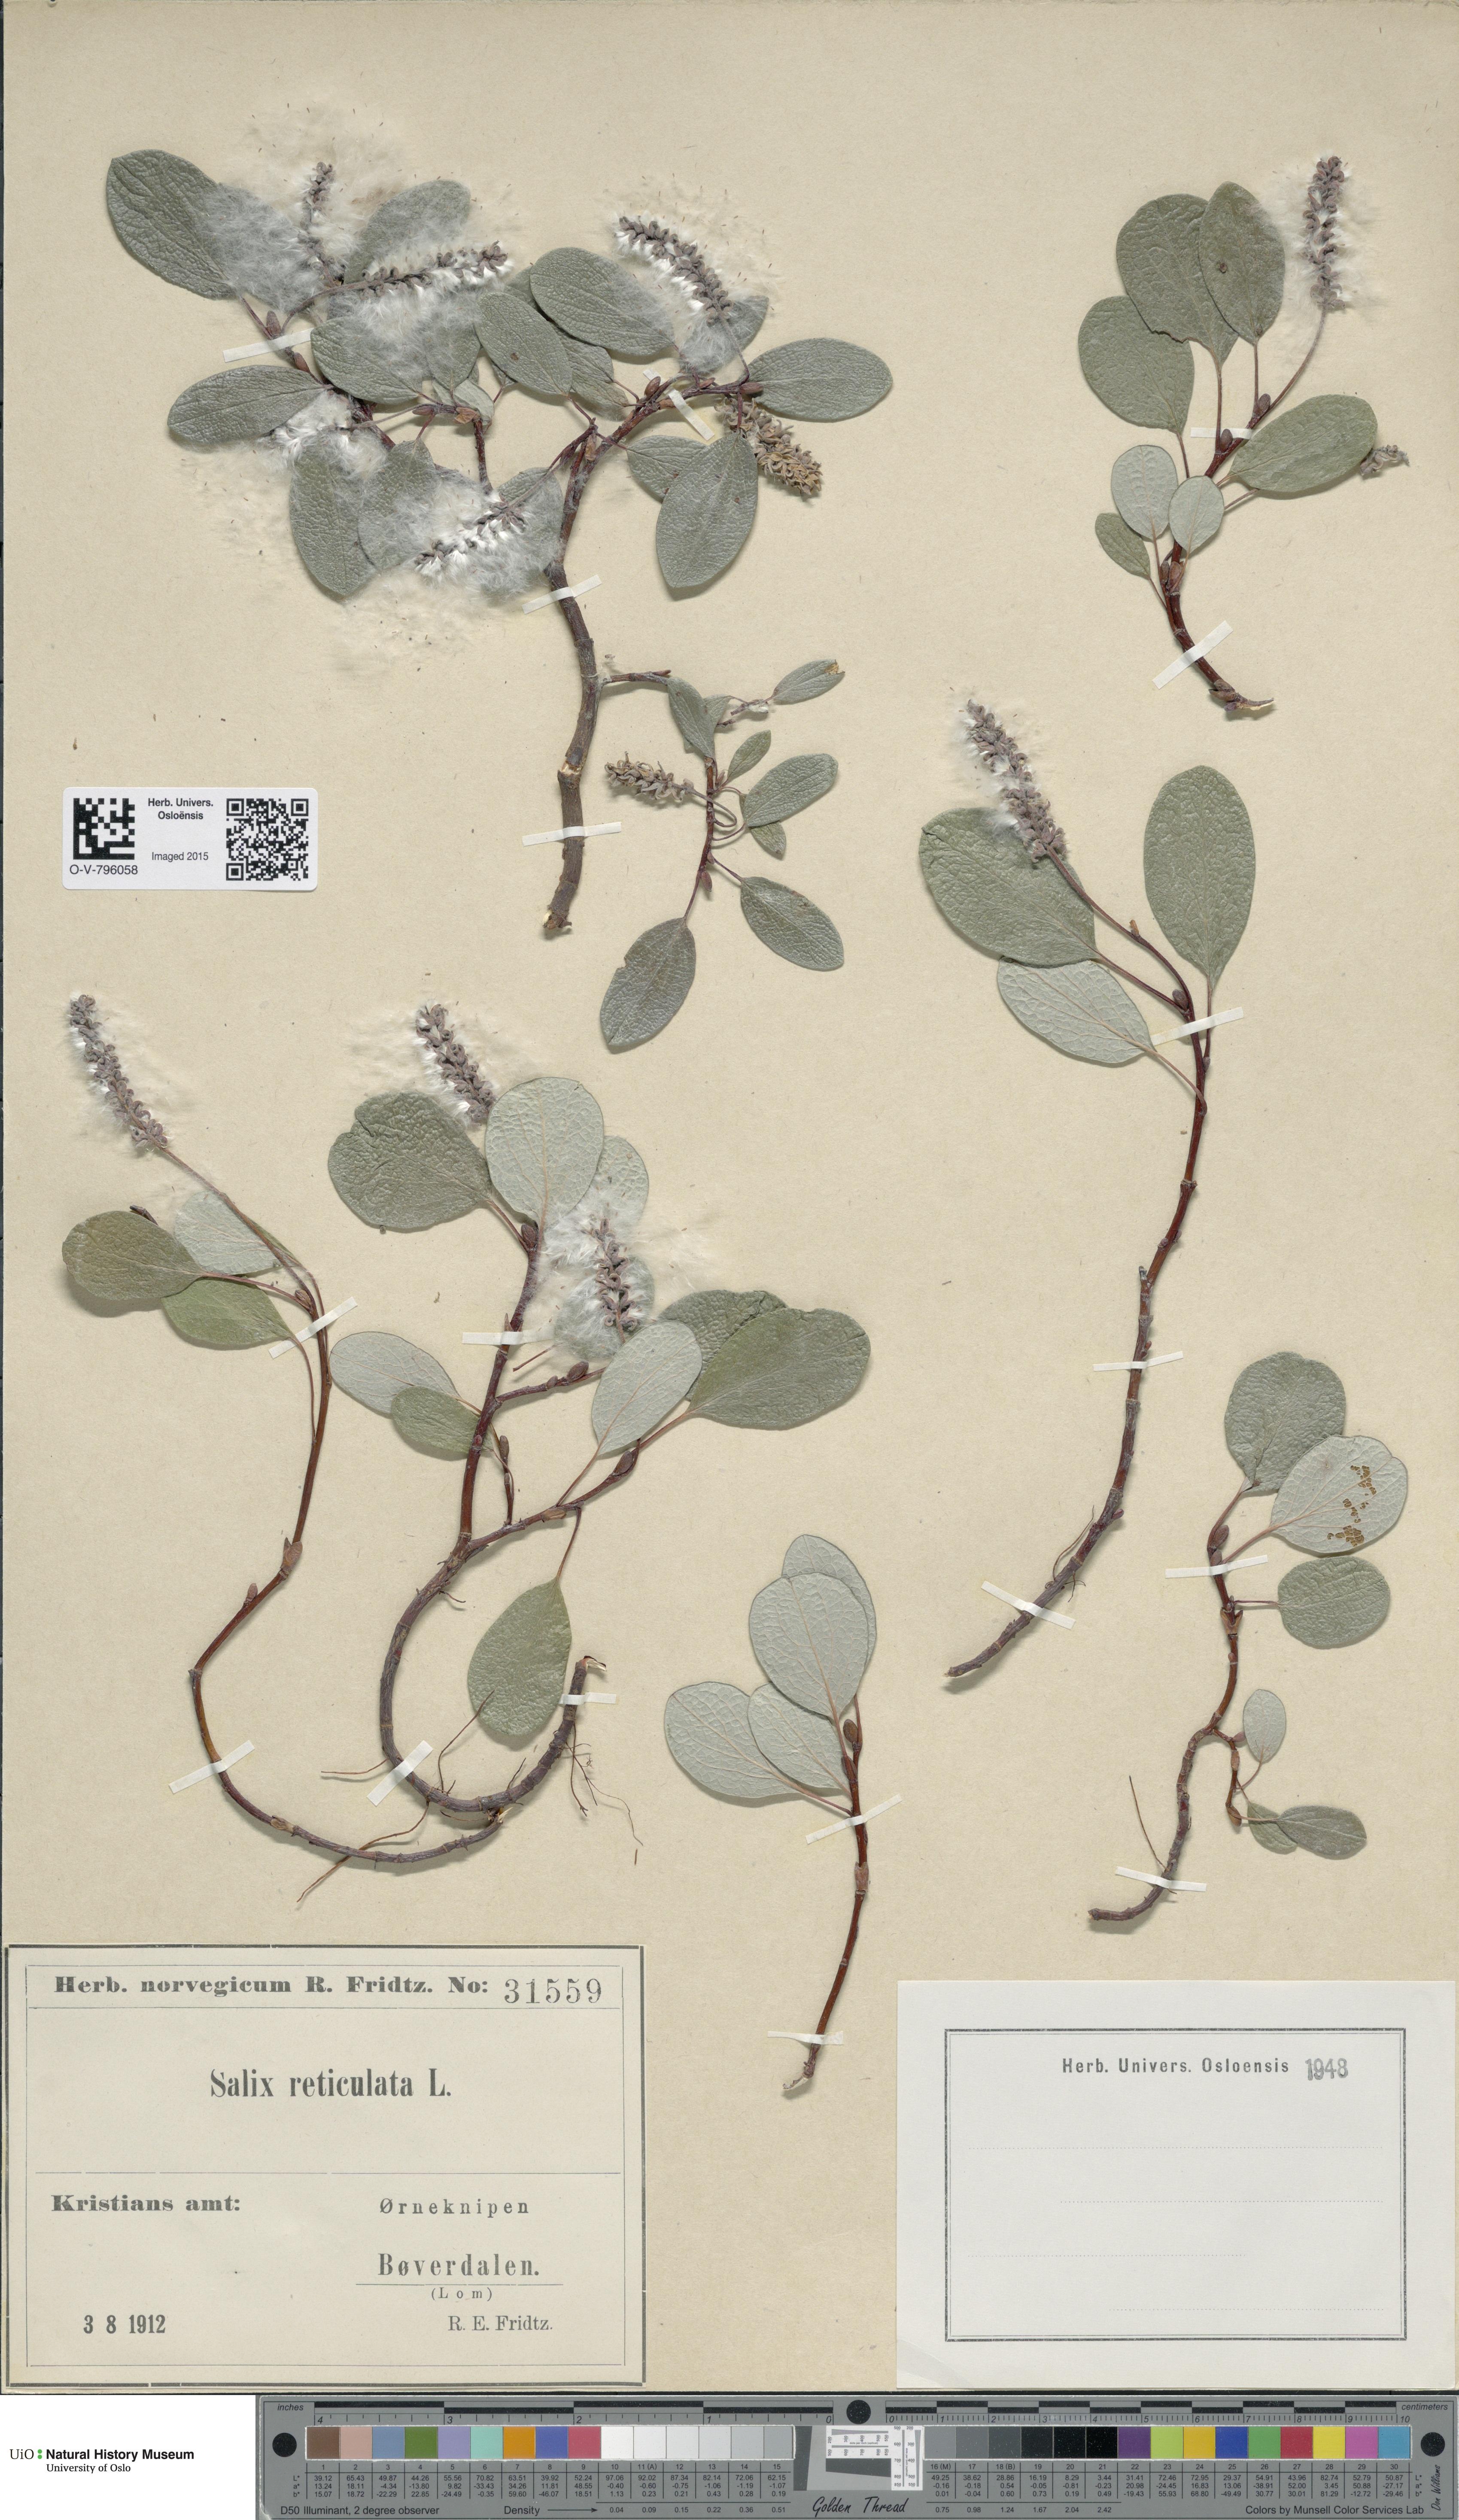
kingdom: Plantae
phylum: Tracheophyta
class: Magnoliopsida
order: Malpighiales
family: Salicaceae
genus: Salix
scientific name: Salix reticulata
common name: Net-leaved willow
